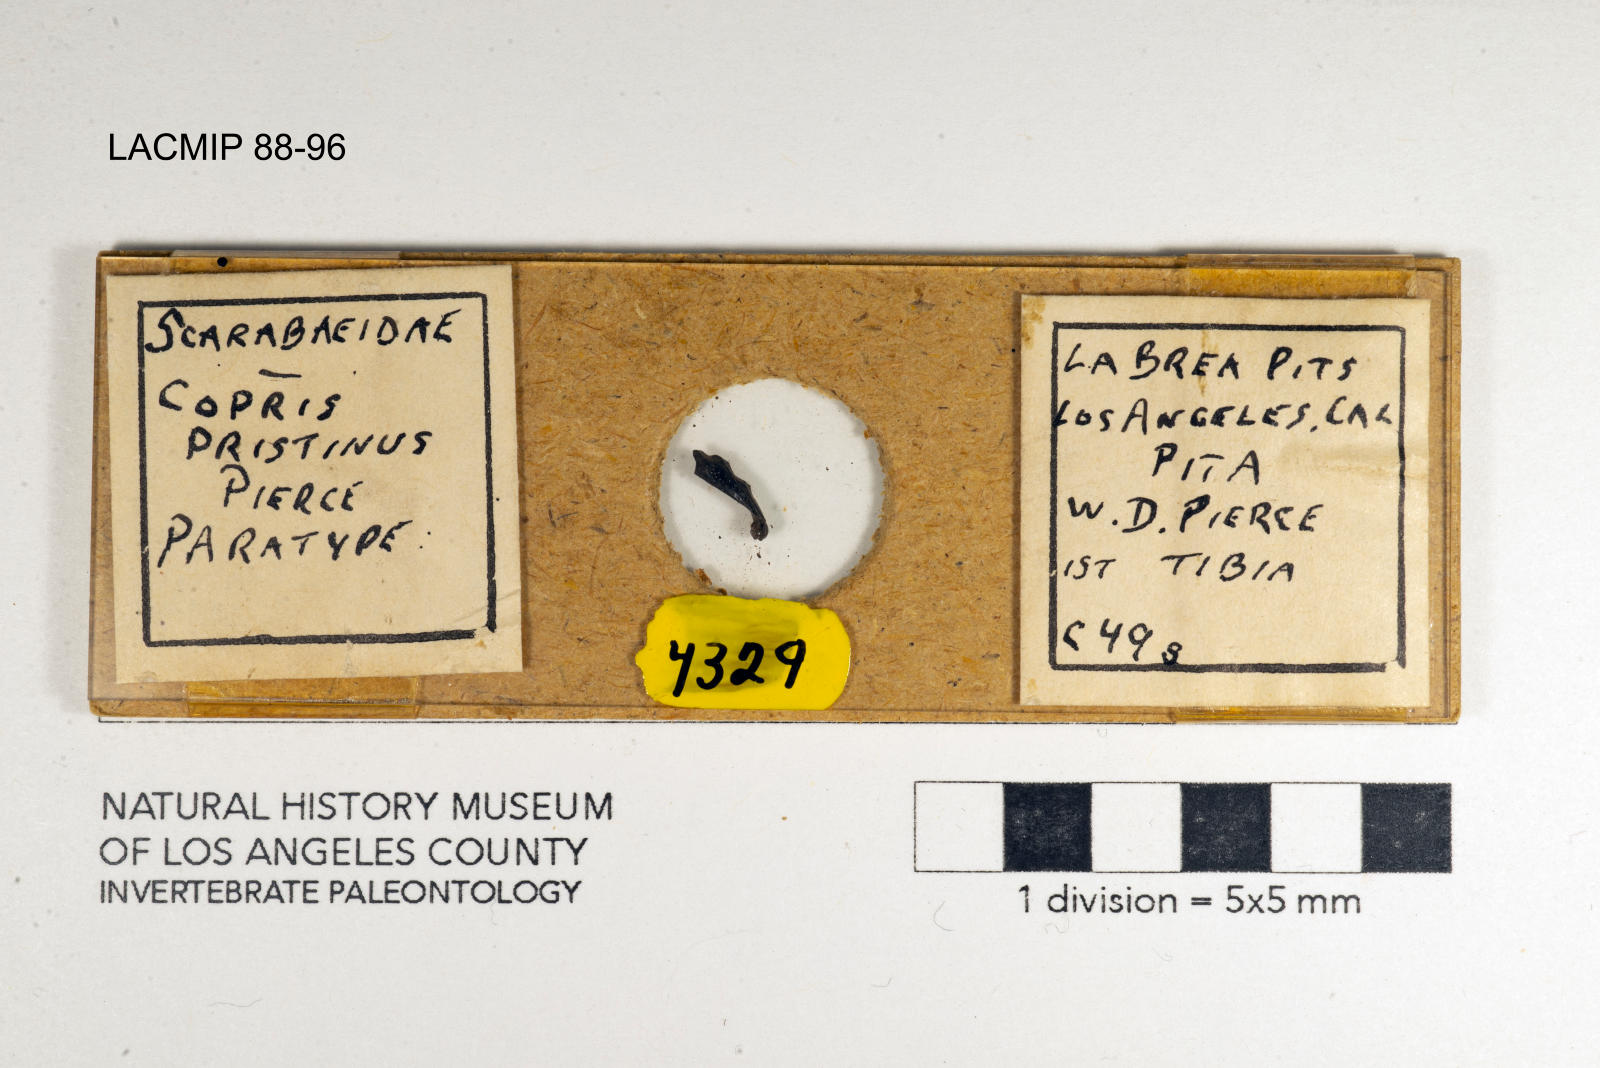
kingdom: Animalia
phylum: Arthropoda
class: Insecta
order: Coleoptera
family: Scarabaeidae
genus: Copris
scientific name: Copris pristinus
